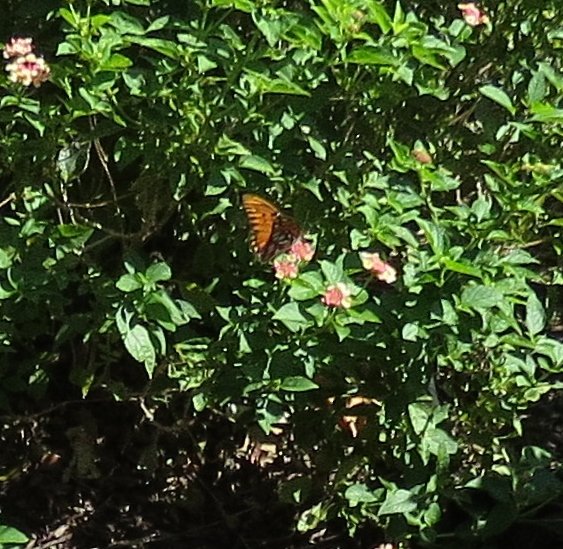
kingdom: Animalia
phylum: Arthropoda
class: Insecta
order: Lepidoptera
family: Nymphalidae
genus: Dione
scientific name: Dione vanillae
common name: Gulf Fritillary
